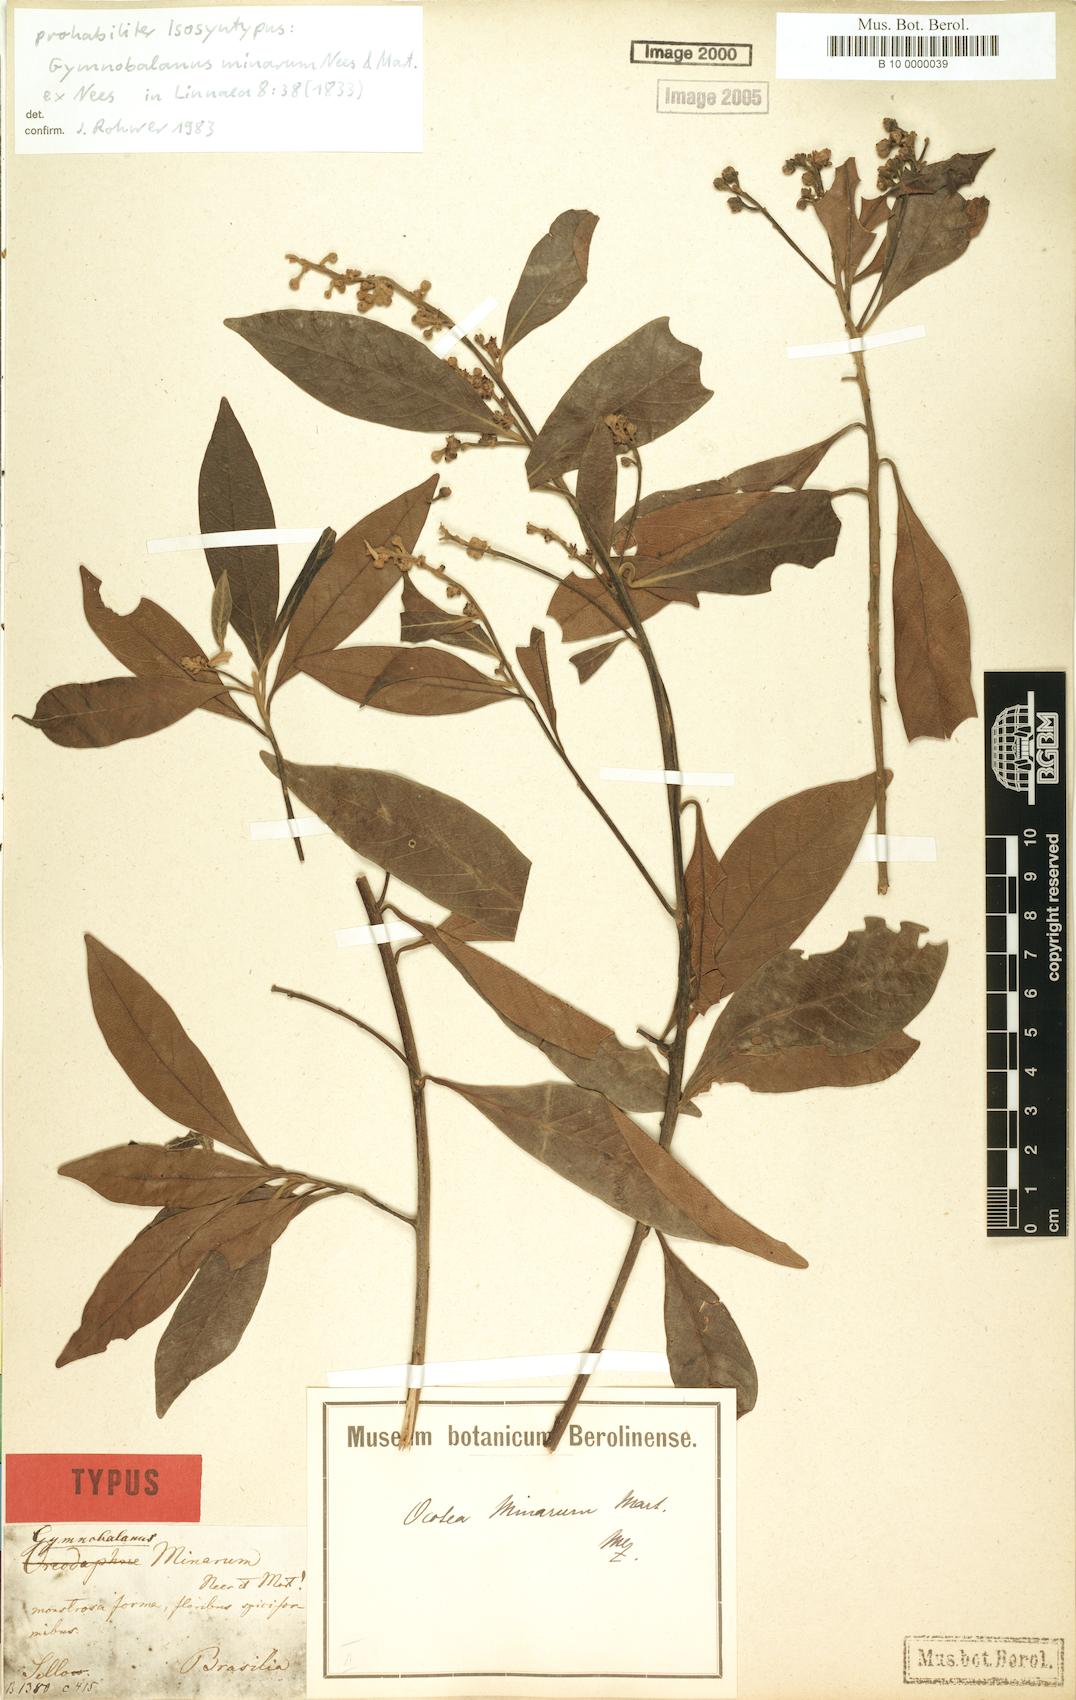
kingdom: Plantae
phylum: Tracheophyta
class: Magnoliopsida
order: Laurales
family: Lauraceae
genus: Ocotea
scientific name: Ocotea minarum
